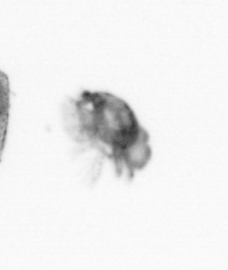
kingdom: Animalia
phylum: Arthropoda
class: Copepoda
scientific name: Copepoda
